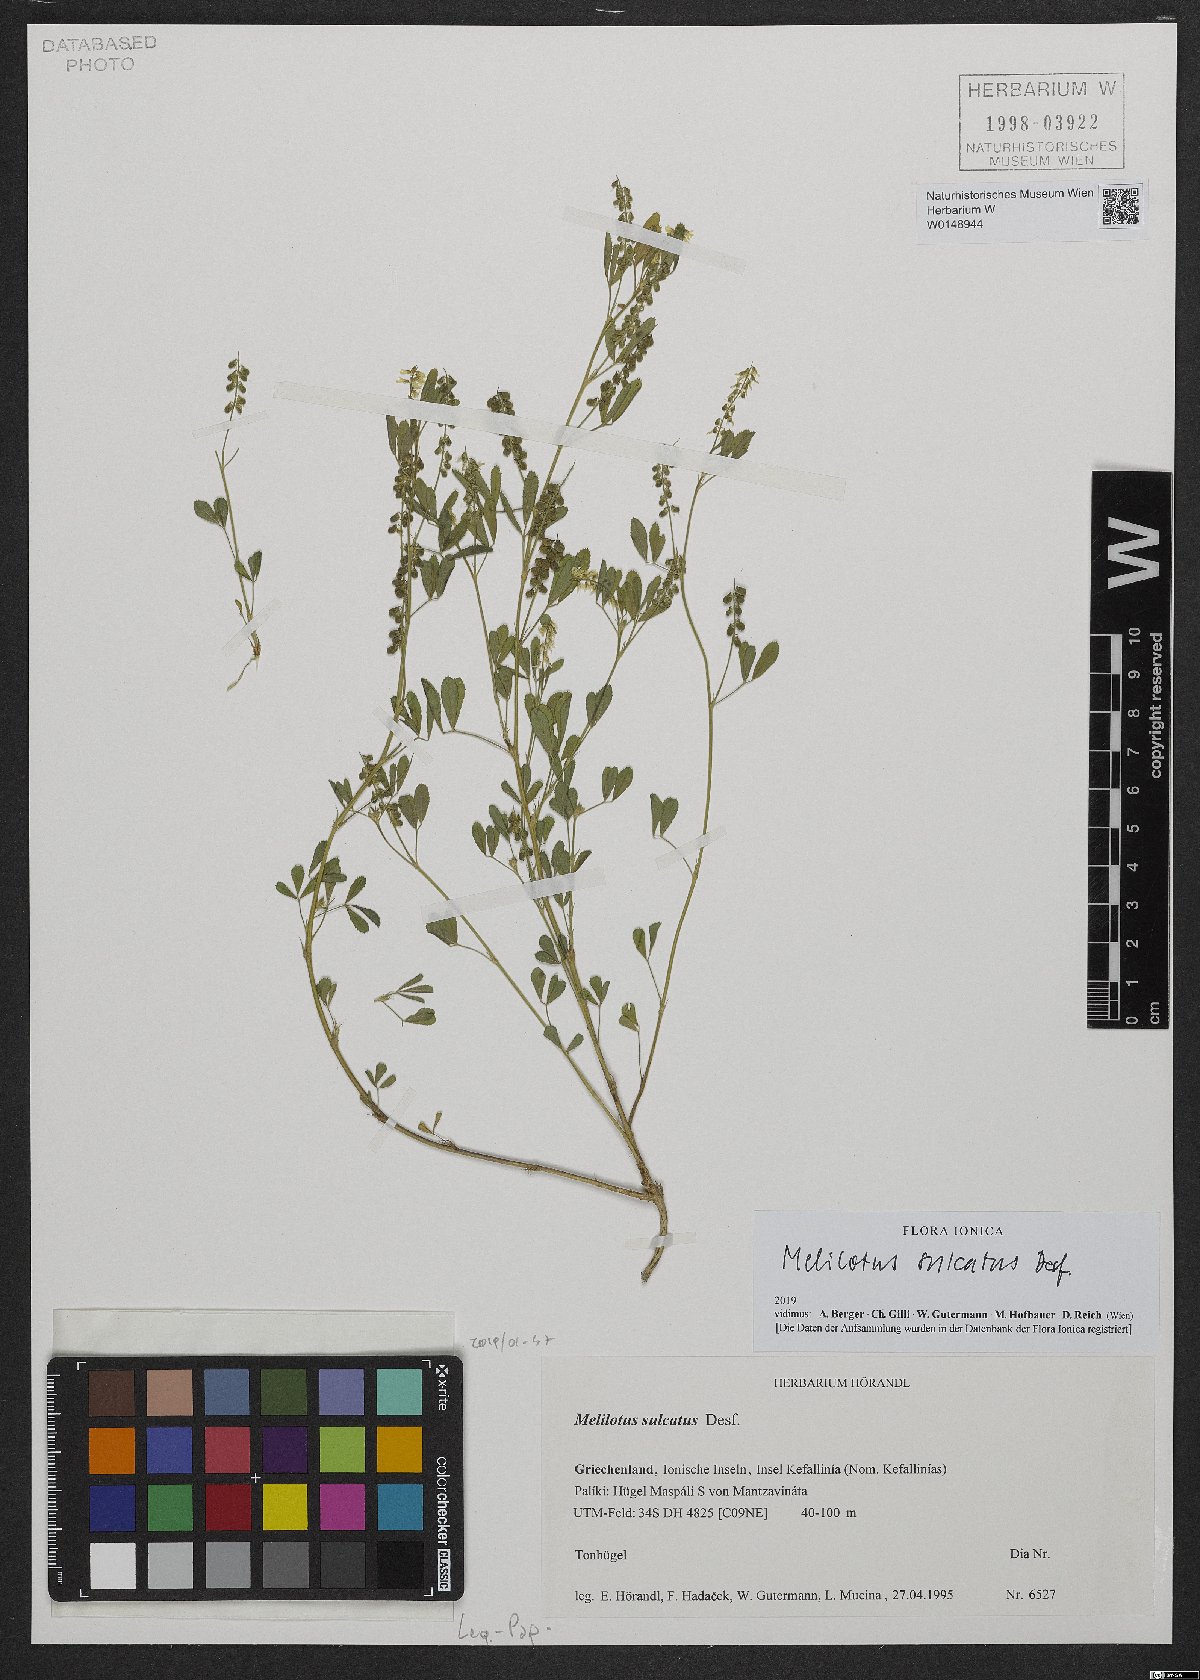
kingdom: Plantae
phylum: Tracheophyta
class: Magnoliopsida
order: Fabales
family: Fabaceae
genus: Melilotus
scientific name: Melilotus siculus
